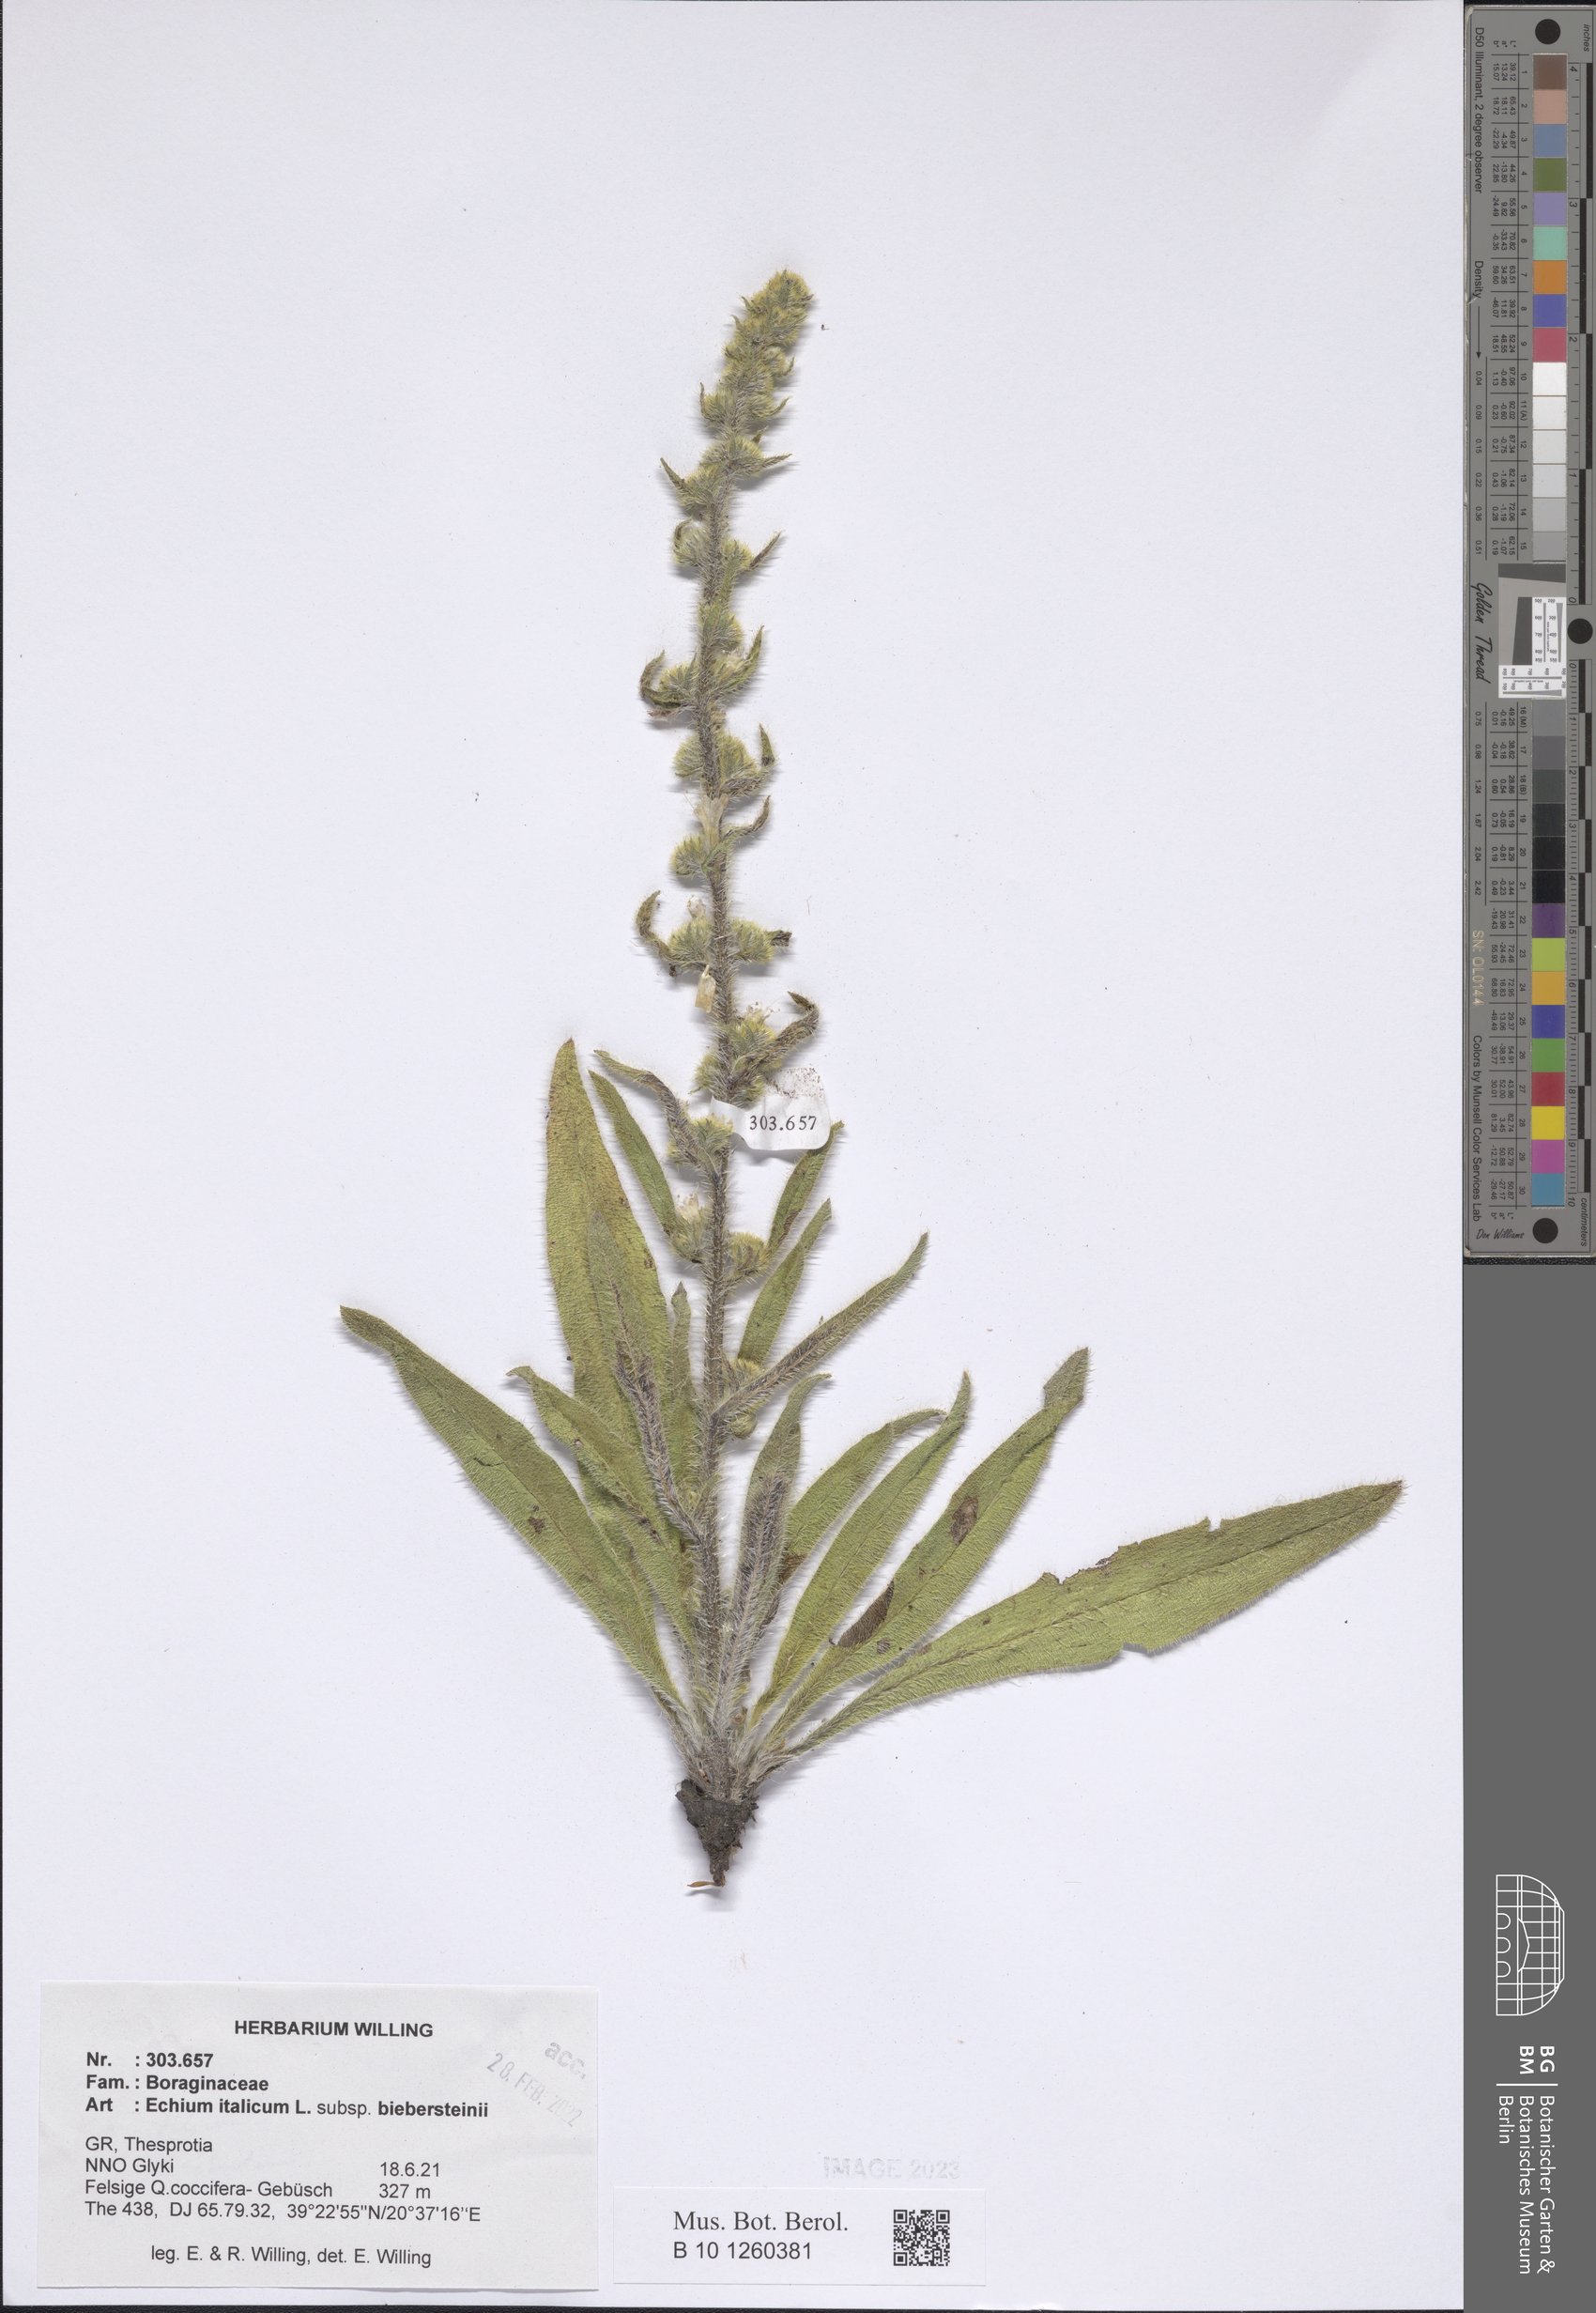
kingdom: Plantae
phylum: Tracheophyta
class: Magnoliopsida
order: Boraginales
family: Boraginaceae
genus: Echium
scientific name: Echium italicum
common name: Italian viper's bugloss
